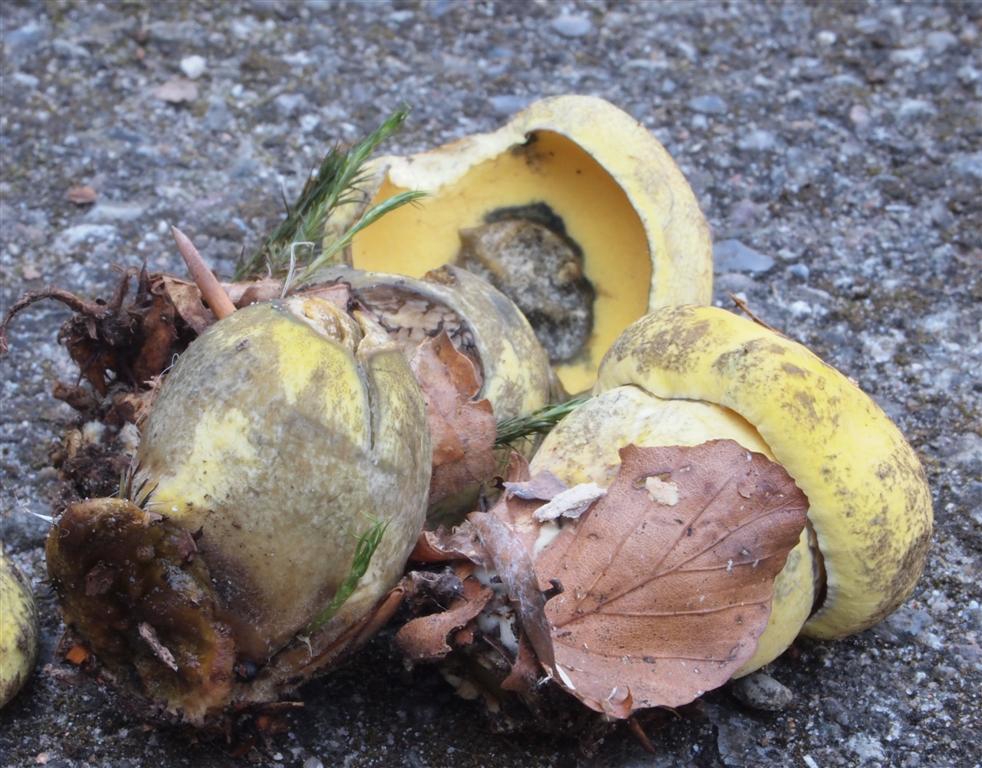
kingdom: Fungi
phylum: Basidiomycota
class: Agaricomycetes
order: Boletales
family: Boletaceae
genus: Neoboletus
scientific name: Neoboletus praestigiator
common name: gul indigorørhat
